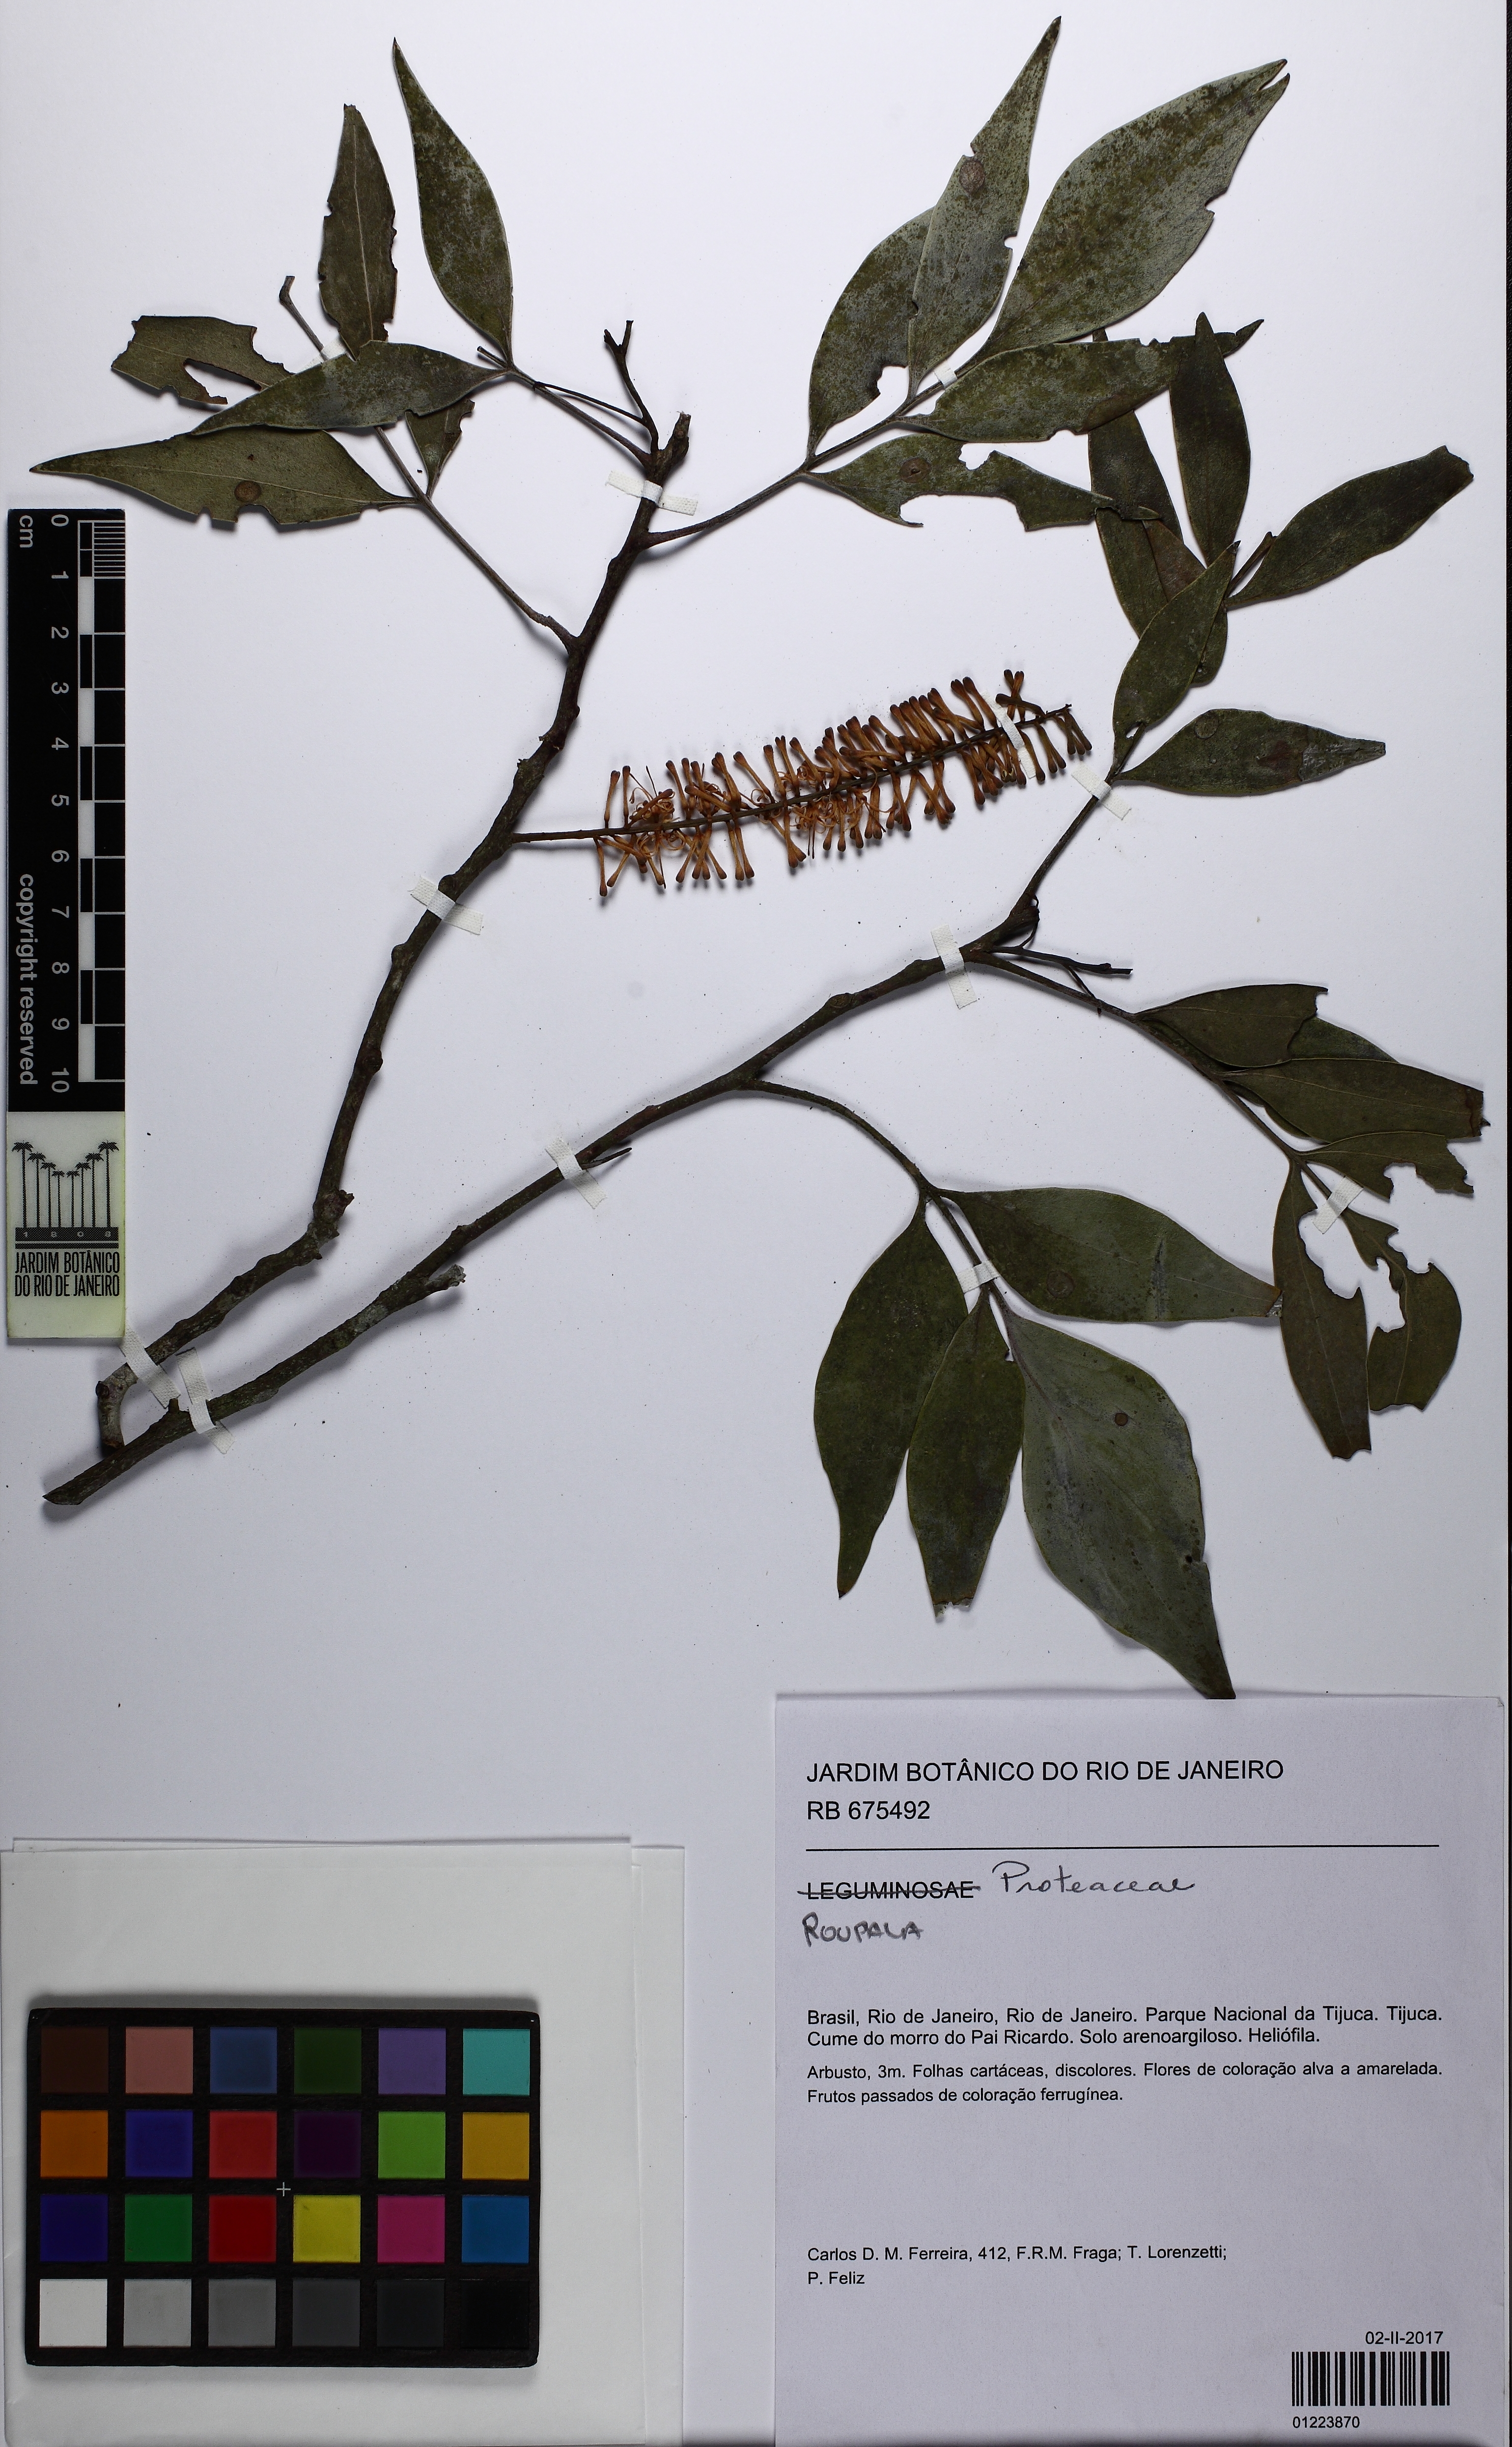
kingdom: Plantae
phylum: Tracheophyta
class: Magnoliopsida
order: Proteales
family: Proteaceae
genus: Roupala
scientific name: Roupala
